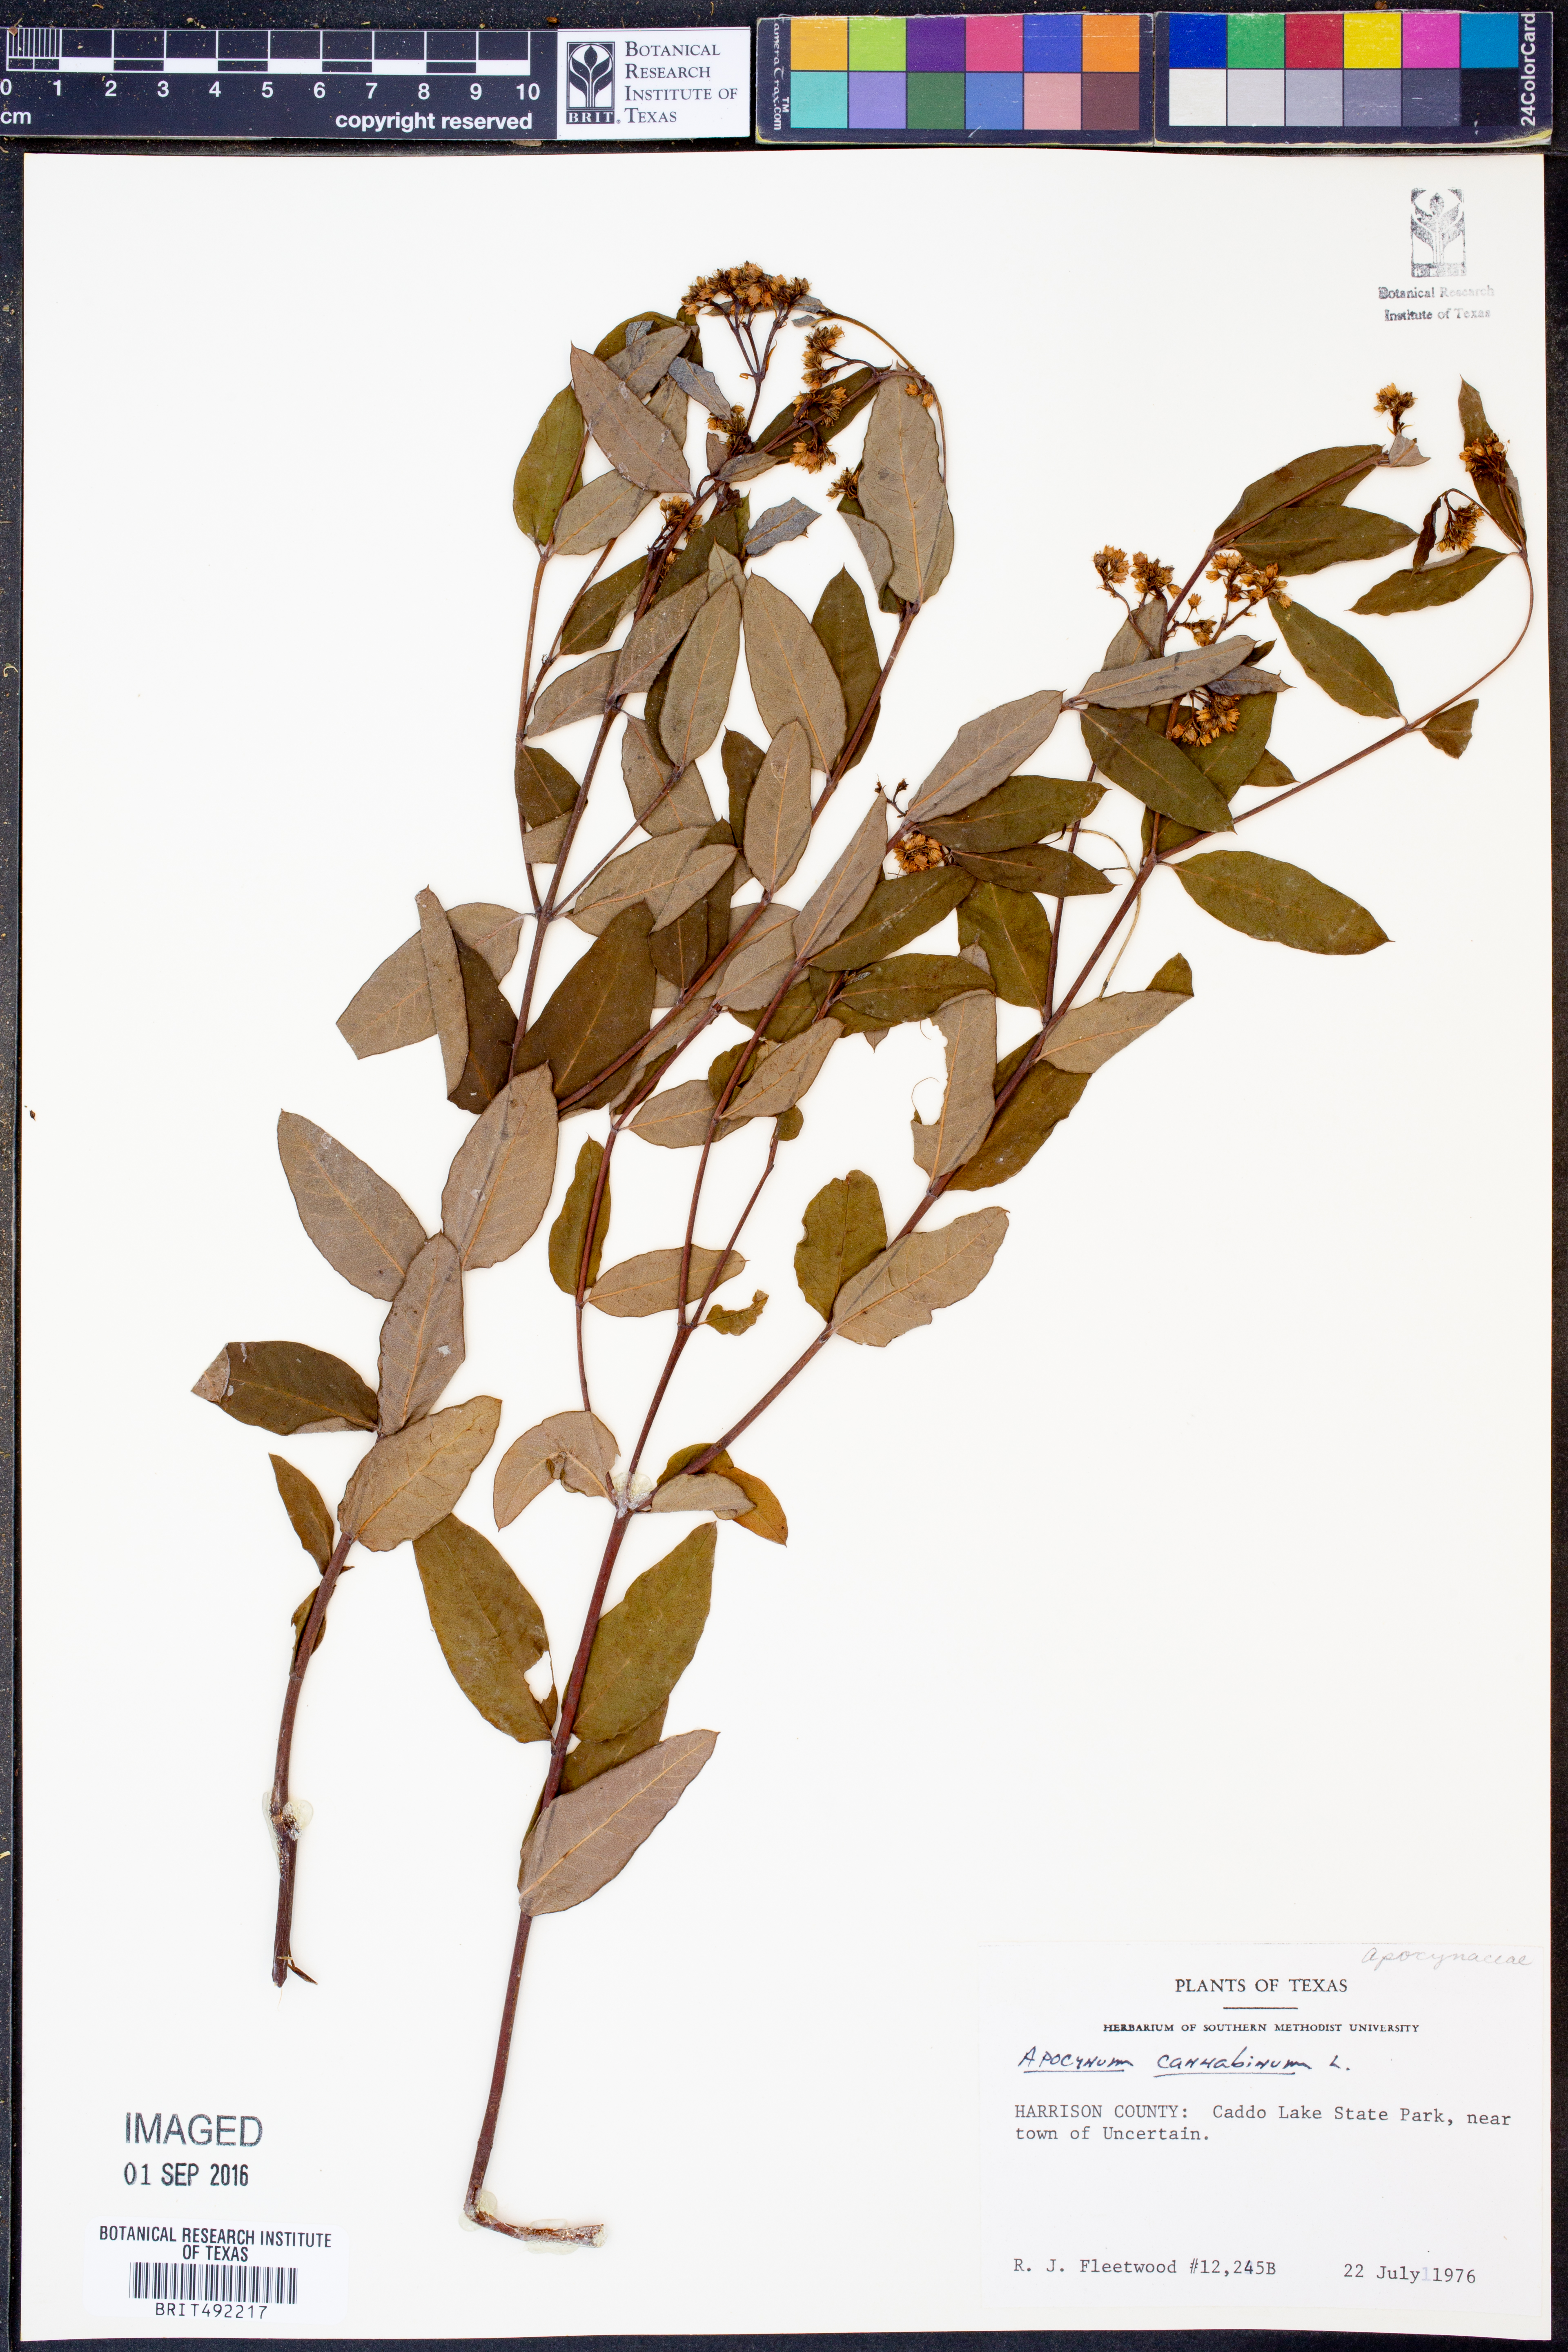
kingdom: Plantae
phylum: Tracheophyta
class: Magnoliopsida
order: Gentianales
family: Apocynaceae
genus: Apocynum
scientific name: Apocynum cannabinum
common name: Hemp dogbane
